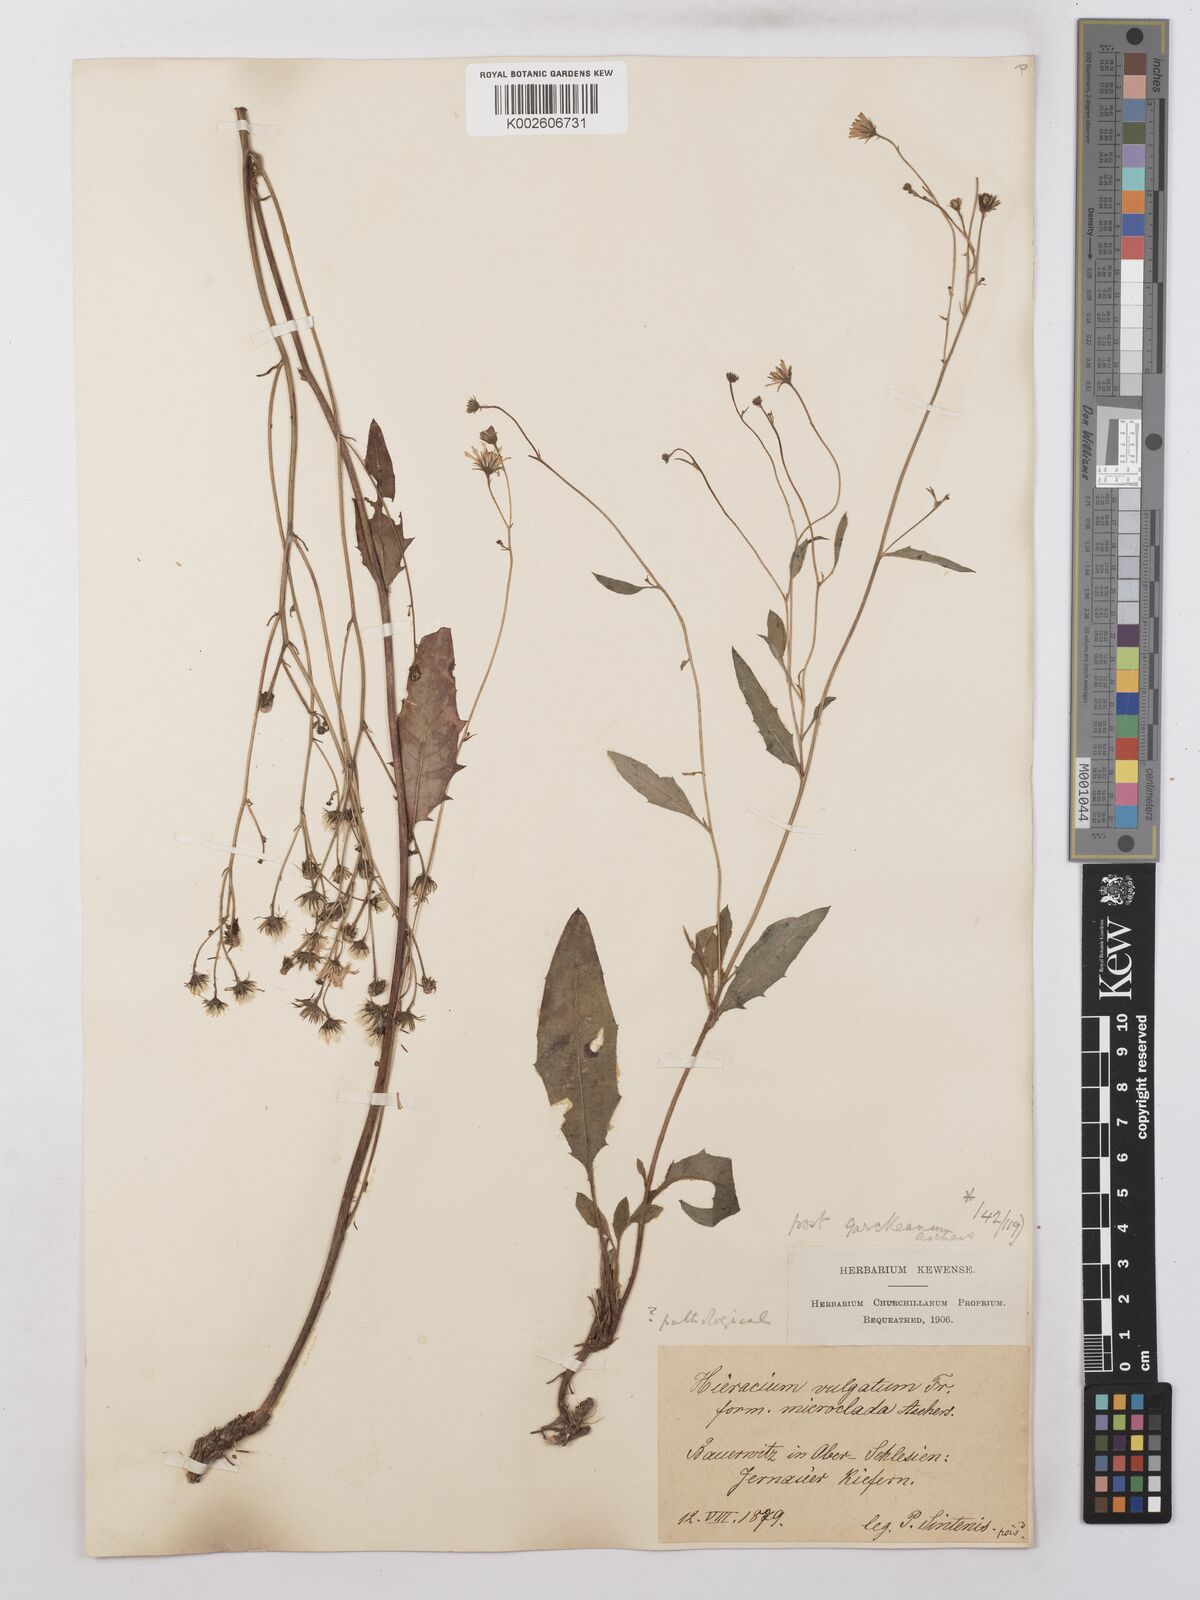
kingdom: Plantae
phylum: Tracheophyta
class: Magnoliopsida
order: Asterales
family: Asteraceae
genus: Hieracium
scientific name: Hieracium lachenalii
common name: Common hawkweed
